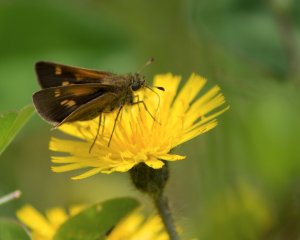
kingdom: Animalia
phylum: Arthropoda
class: Insecta
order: Lepidoptera
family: Hesperiidae
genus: Polites
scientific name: Polites coras
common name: Peck's Skipper
